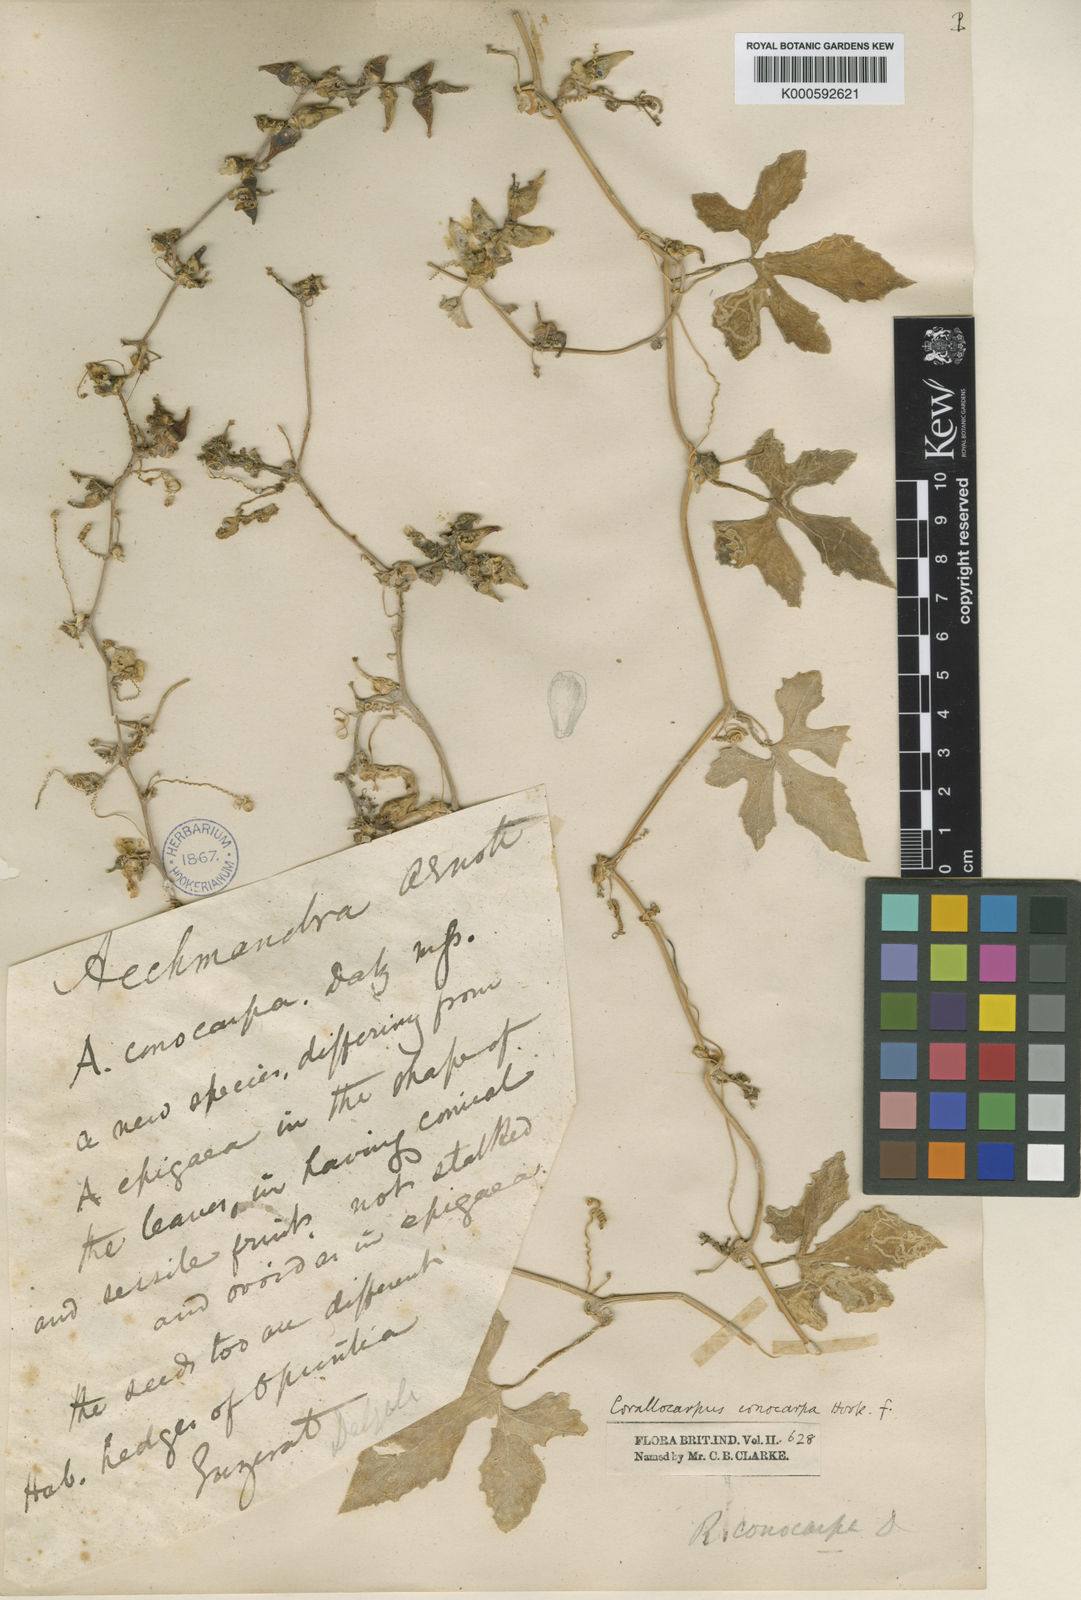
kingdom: Plantae
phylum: Tracheophyta
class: Magnoliopsida
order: Cucurbitales
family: Cucurbitaceae
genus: Corallocarpus
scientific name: Corallocarpus conocarpus
